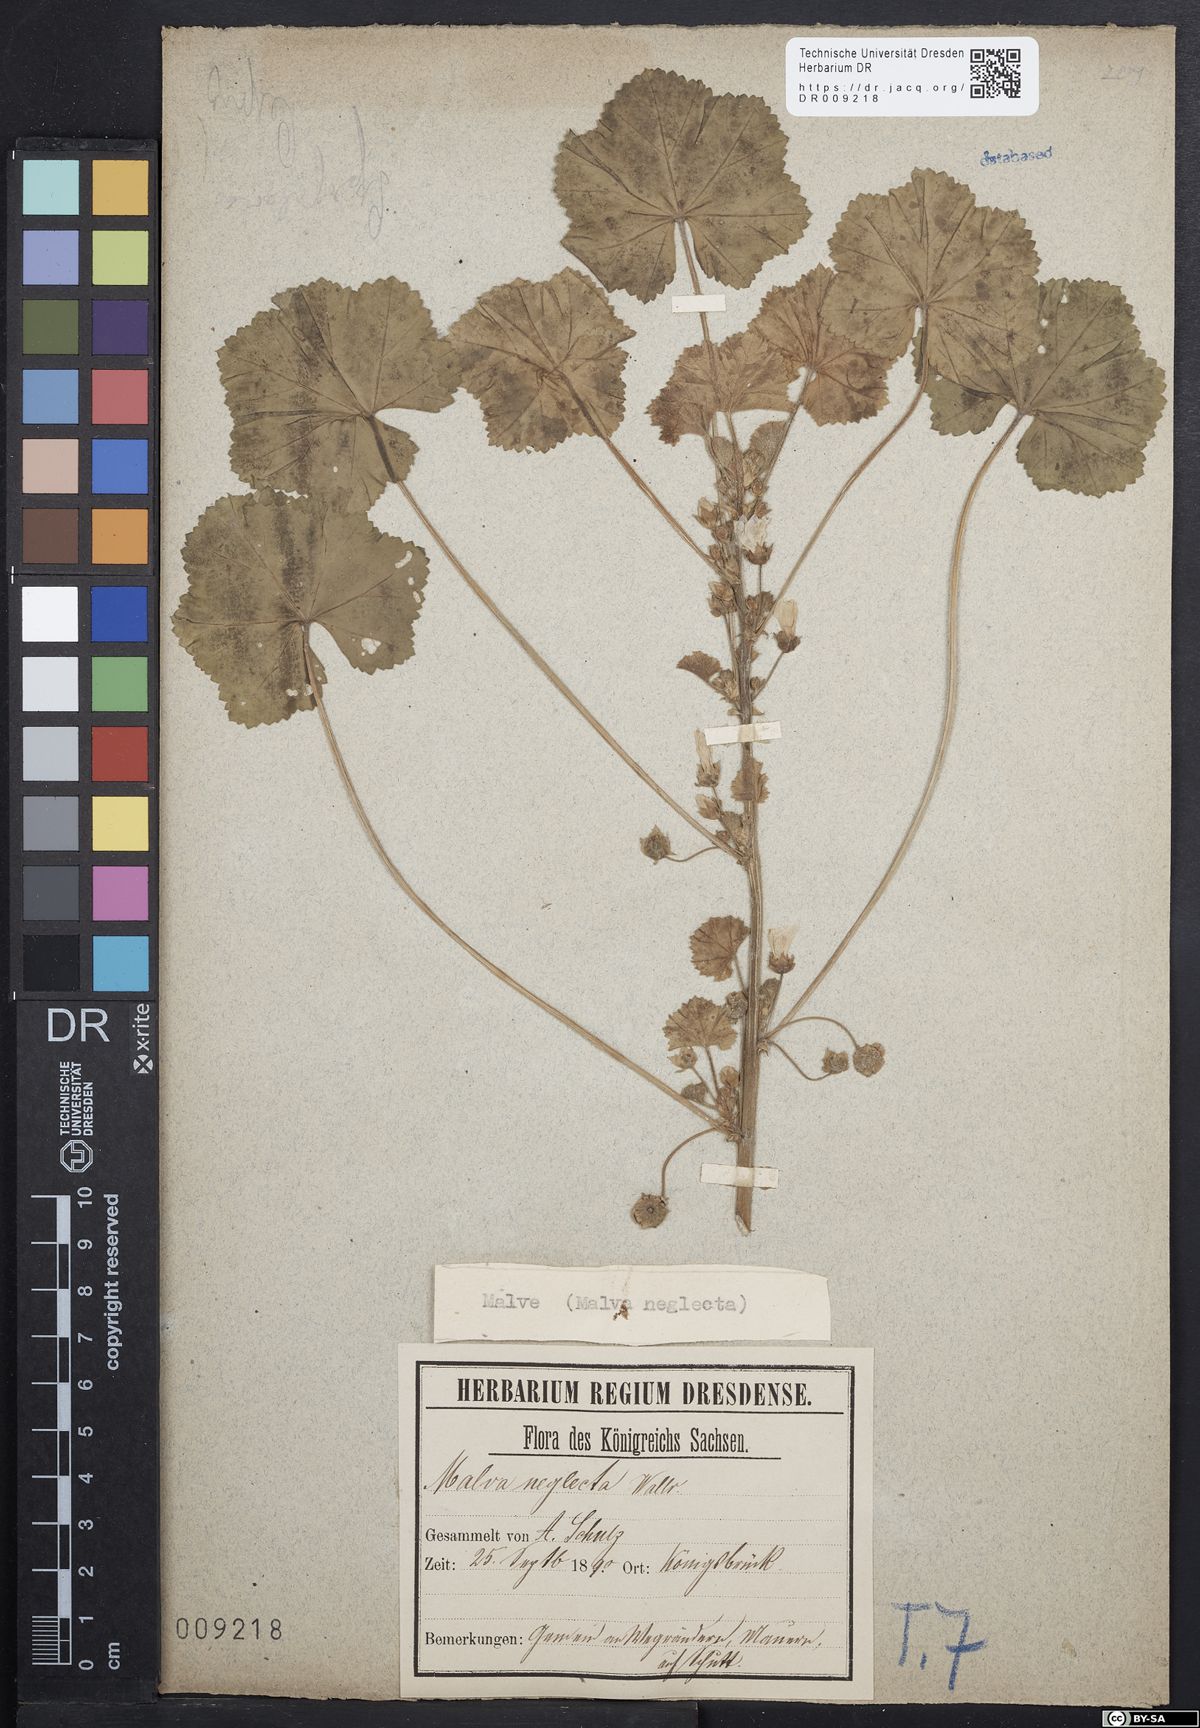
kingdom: Plantae
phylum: Tracheophyta
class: Magnoliopsida
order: Malvales
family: Malvaceae
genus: Malva
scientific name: Malva neglecta
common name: Common mallow
